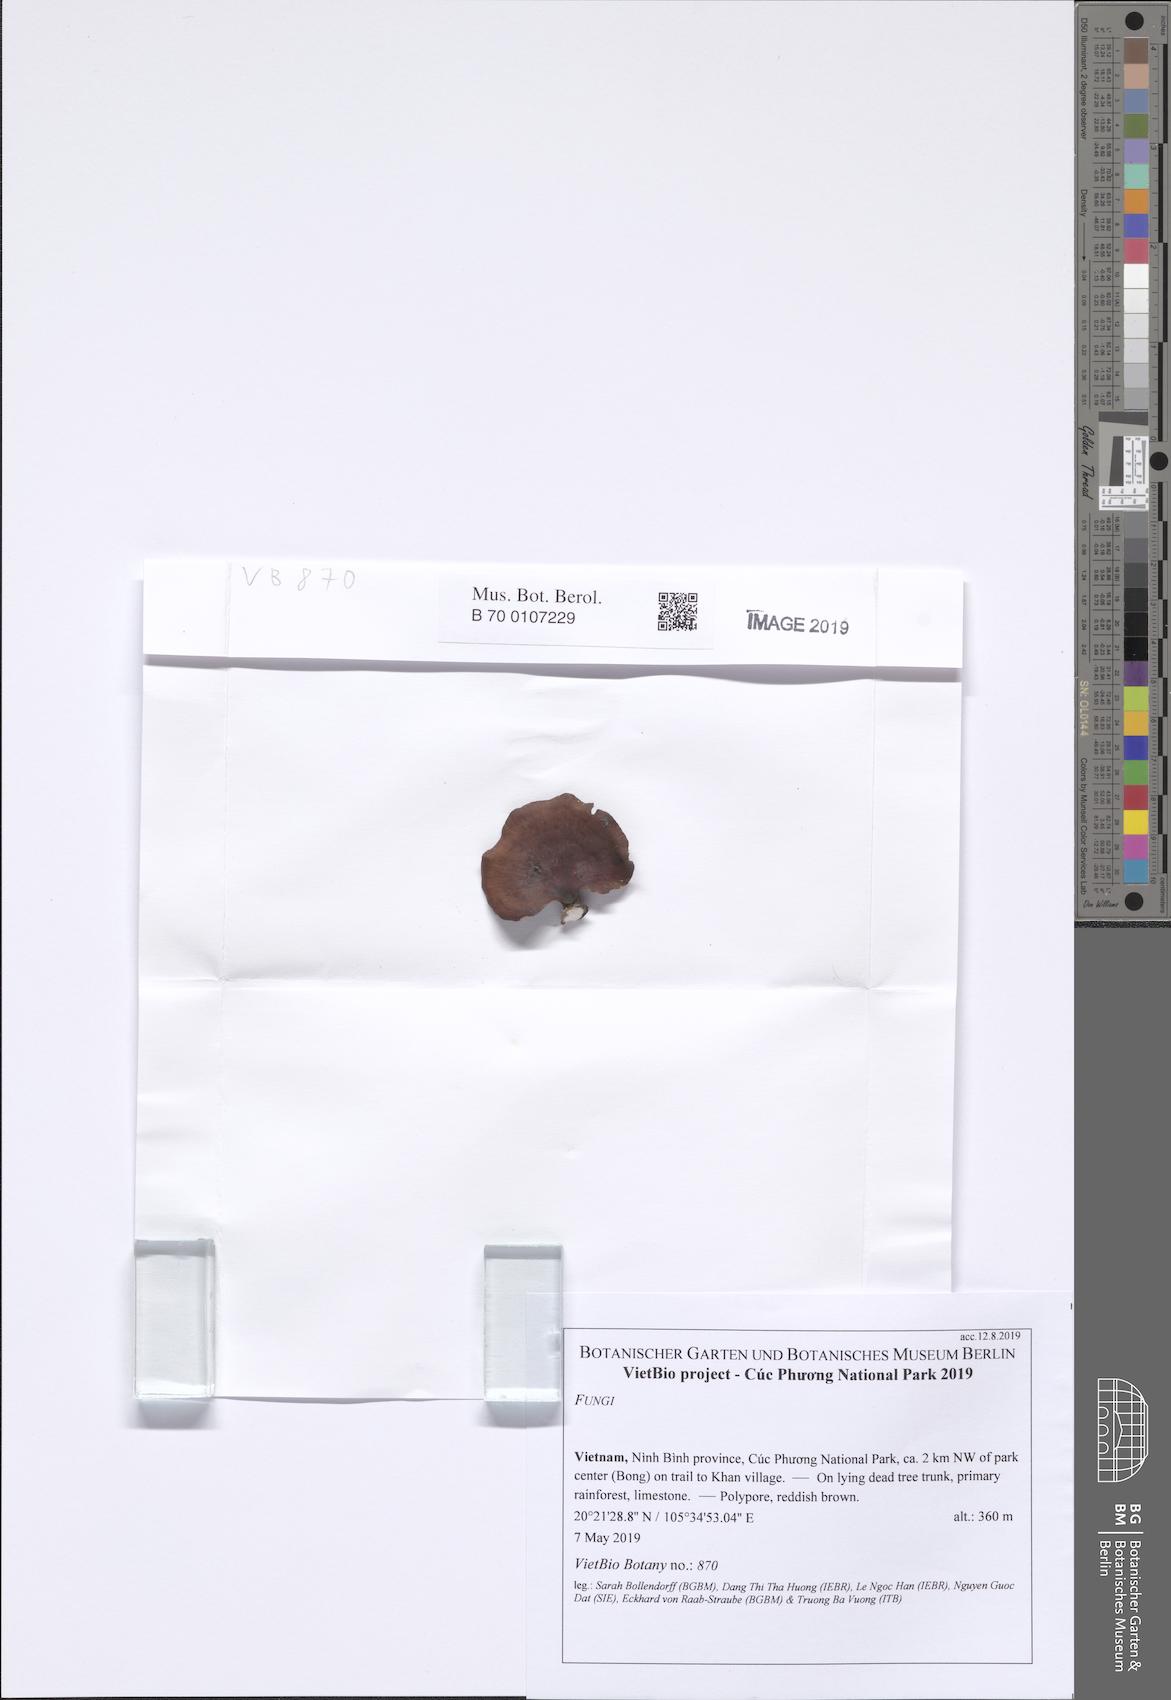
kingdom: Fungi
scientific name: Fungi
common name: Fungi
